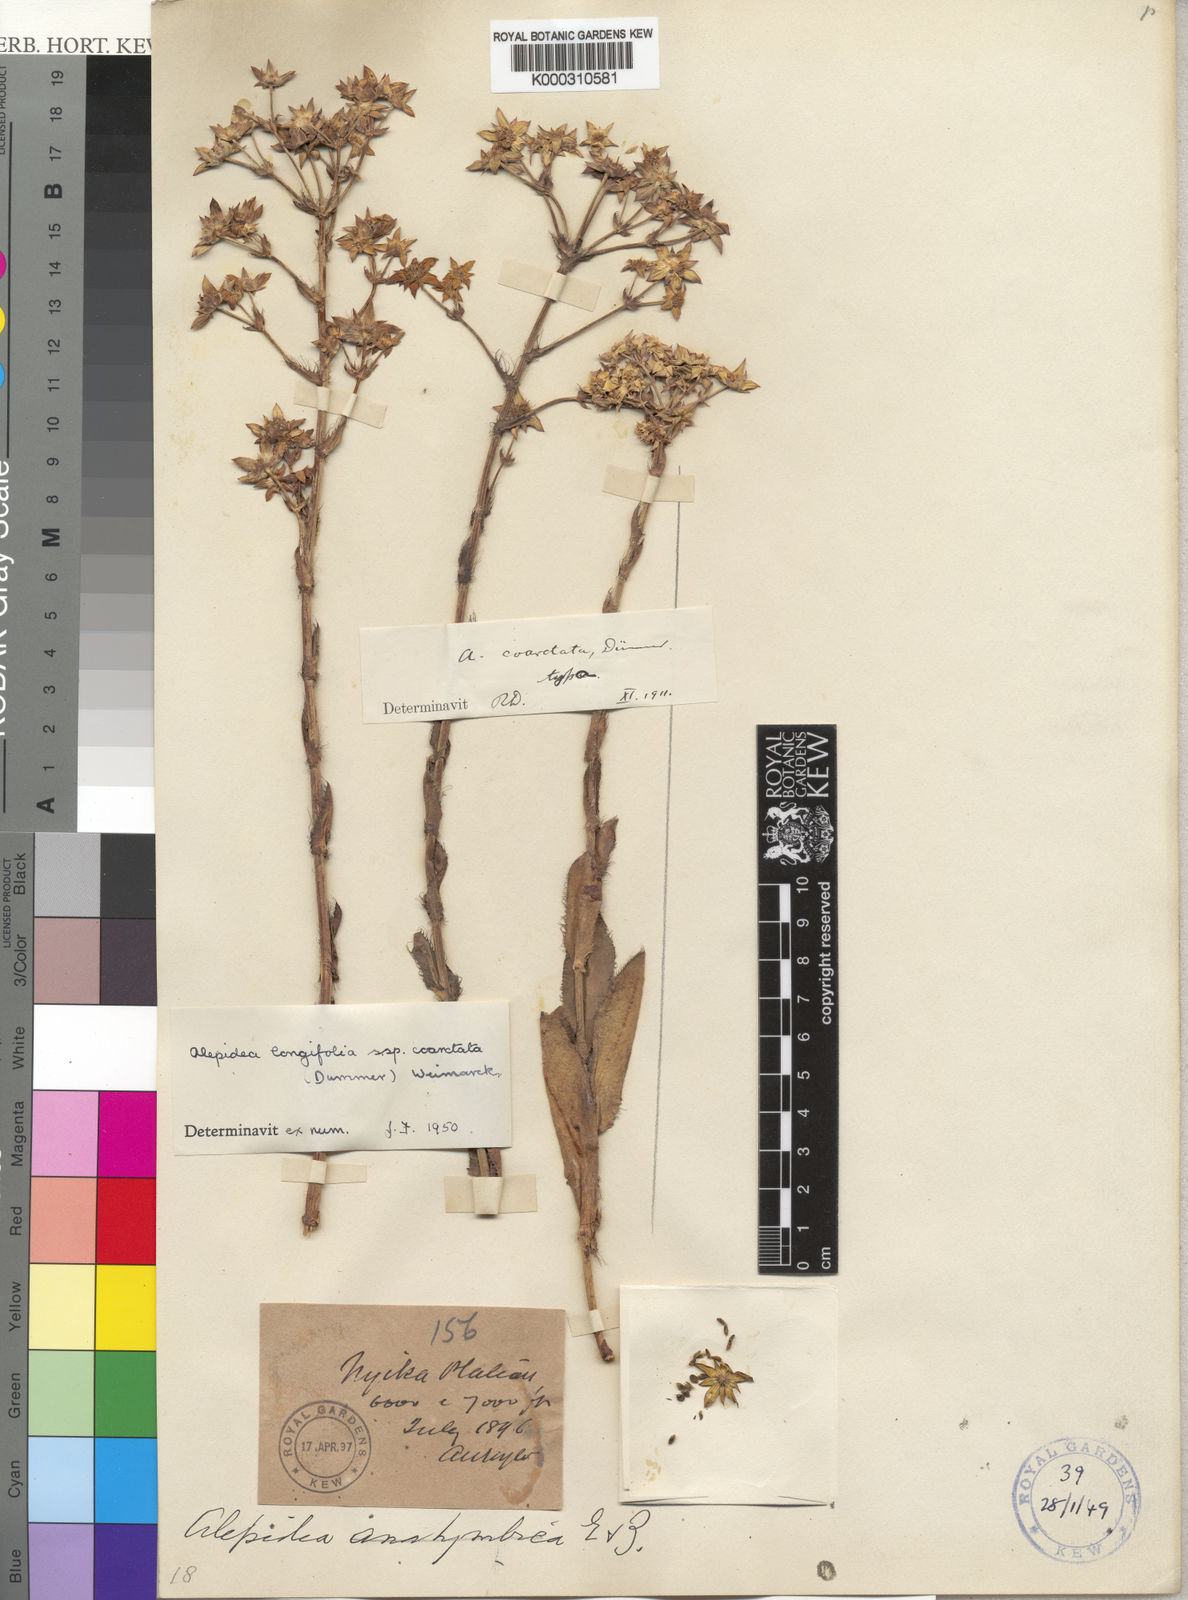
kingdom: Plantae
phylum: Tracheophyta
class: Magnoliopsida
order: Apiales
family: Apiaceae
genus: Alepidea
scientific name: Alepidea
